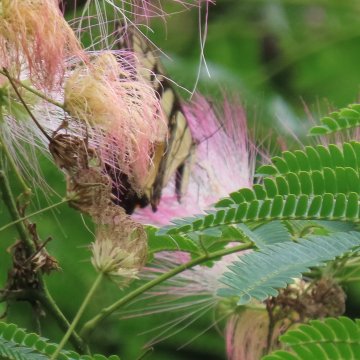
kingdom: Animalia
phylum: Arthropoda
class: Insecta
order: Lepidoptera
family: Papilionidae
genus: Pterourus
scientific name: Pterourus glaucus
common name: Eastern Tiger Swallowtail
